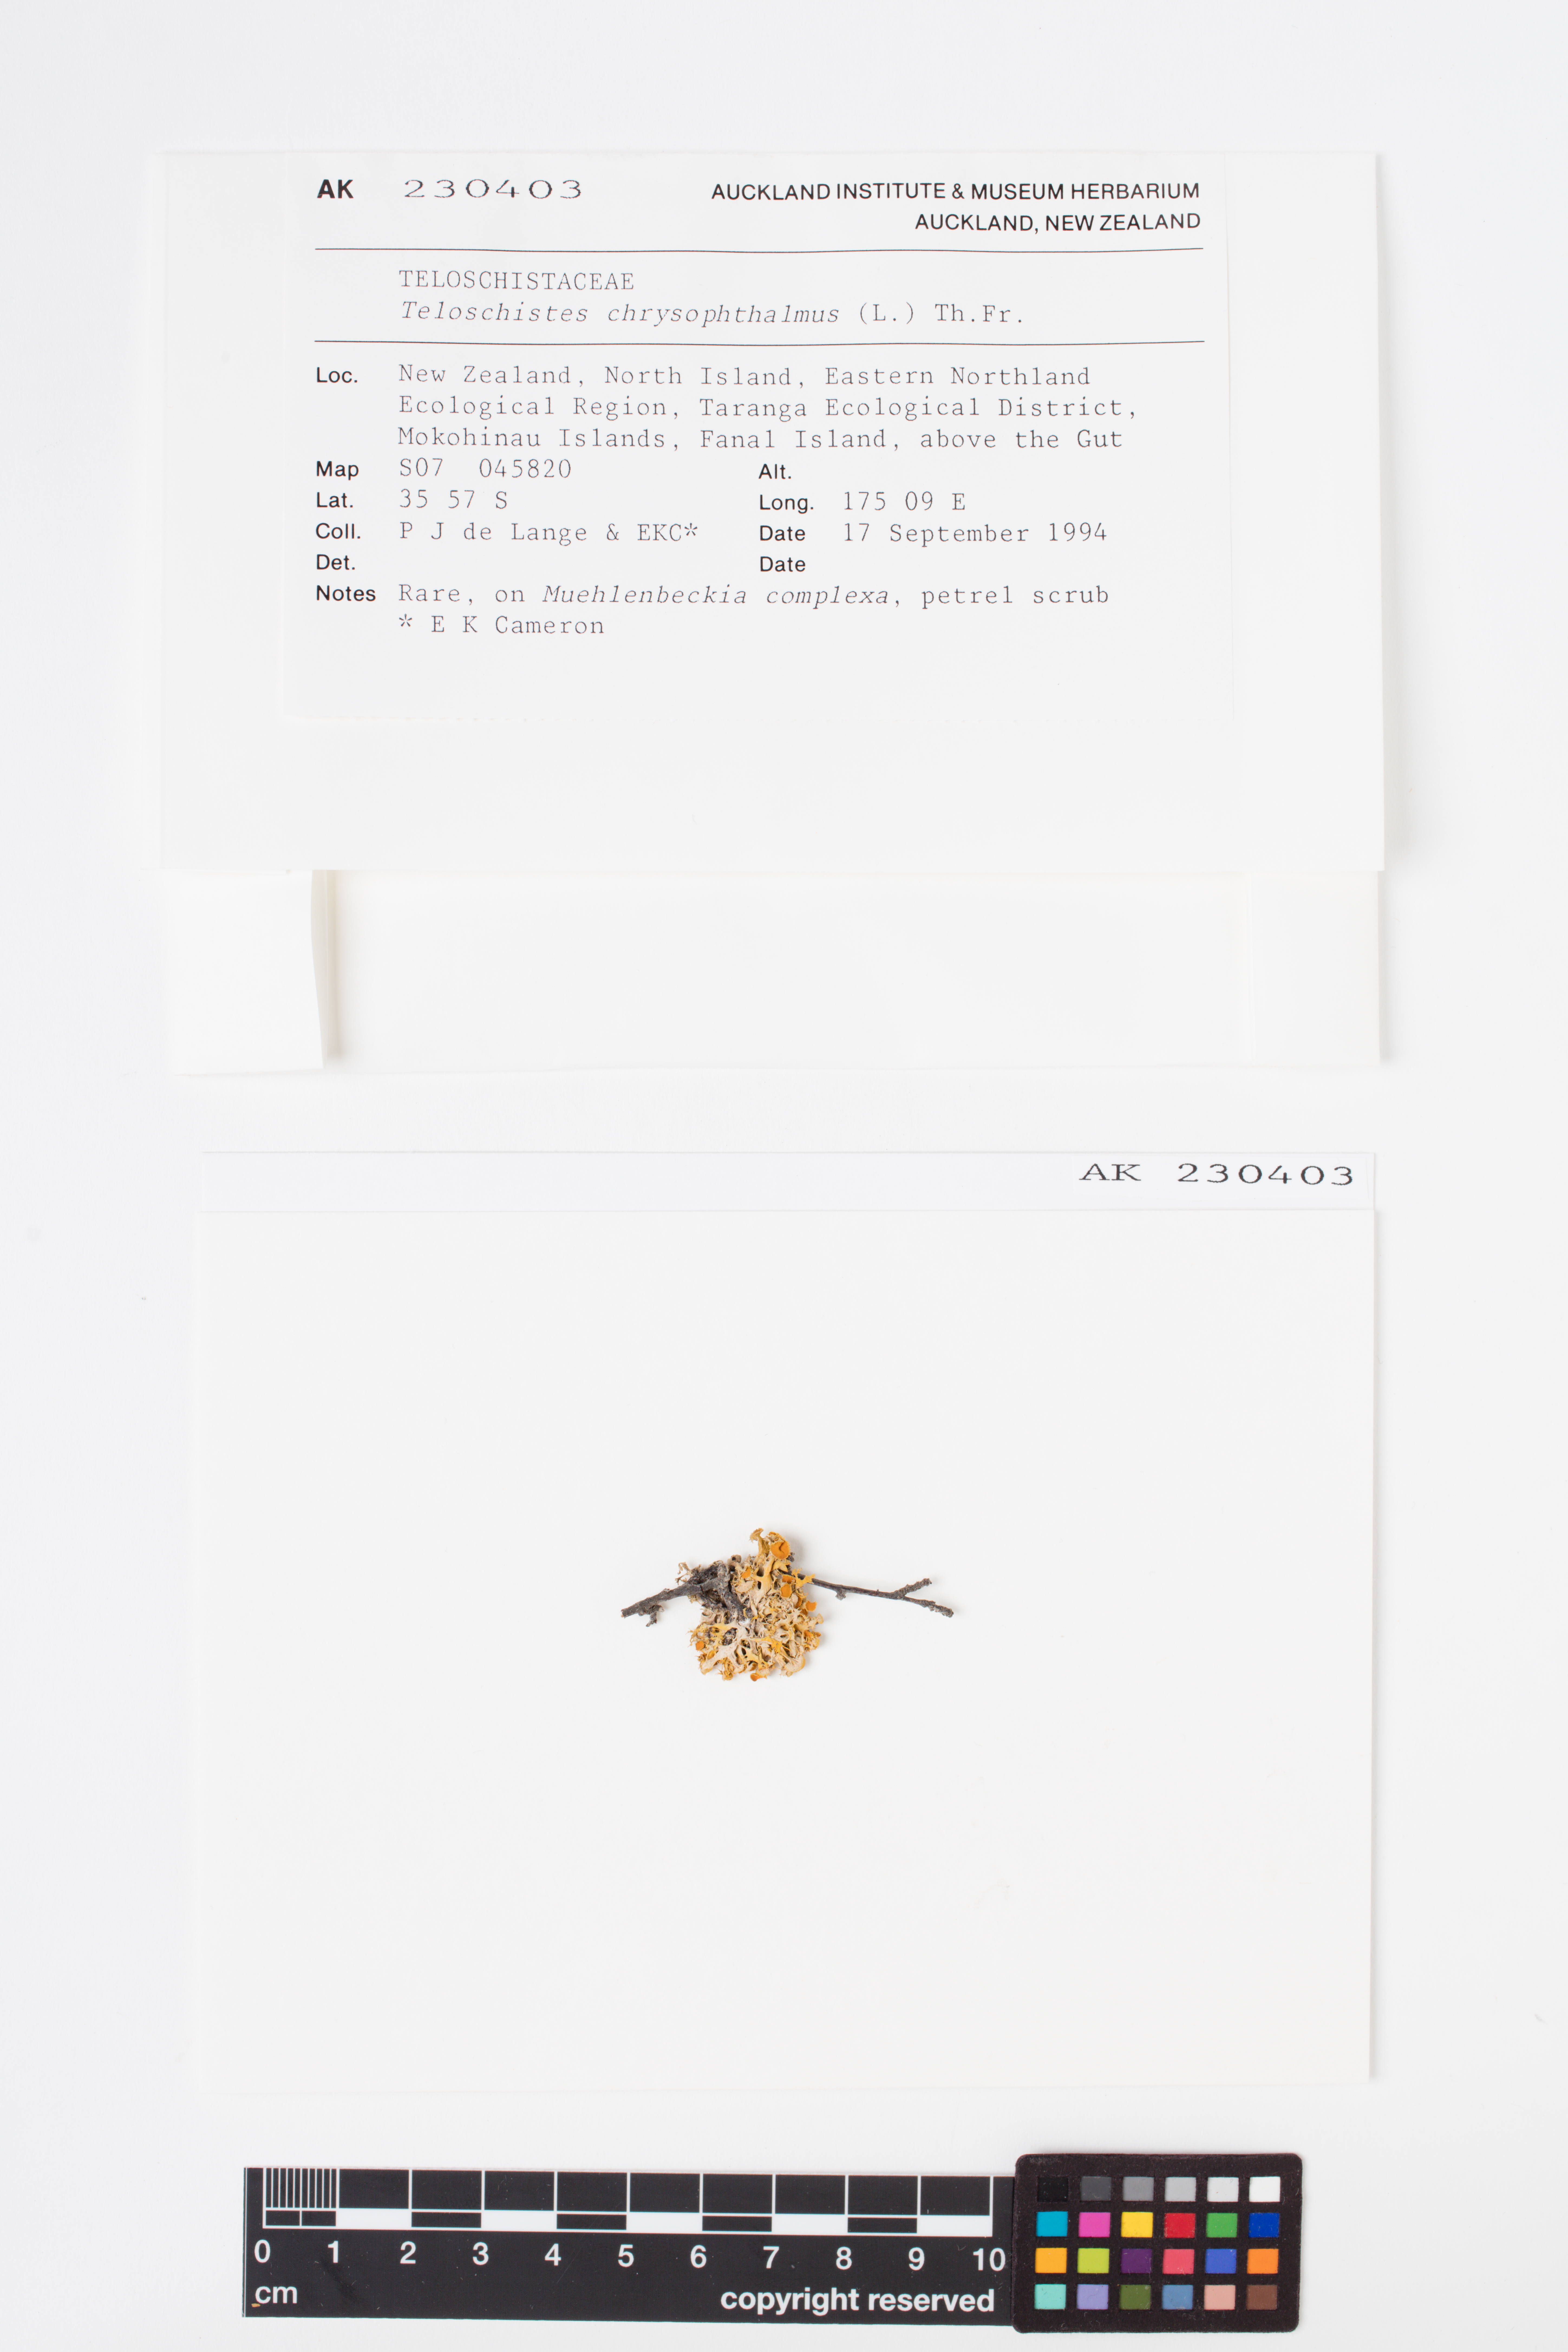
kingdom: Fungi
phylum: Ascomycota
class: Lecanoromycetes
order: Teloschistales
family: Teloschistaceae
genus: Niorma
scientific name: Niorma chrysophthalma
